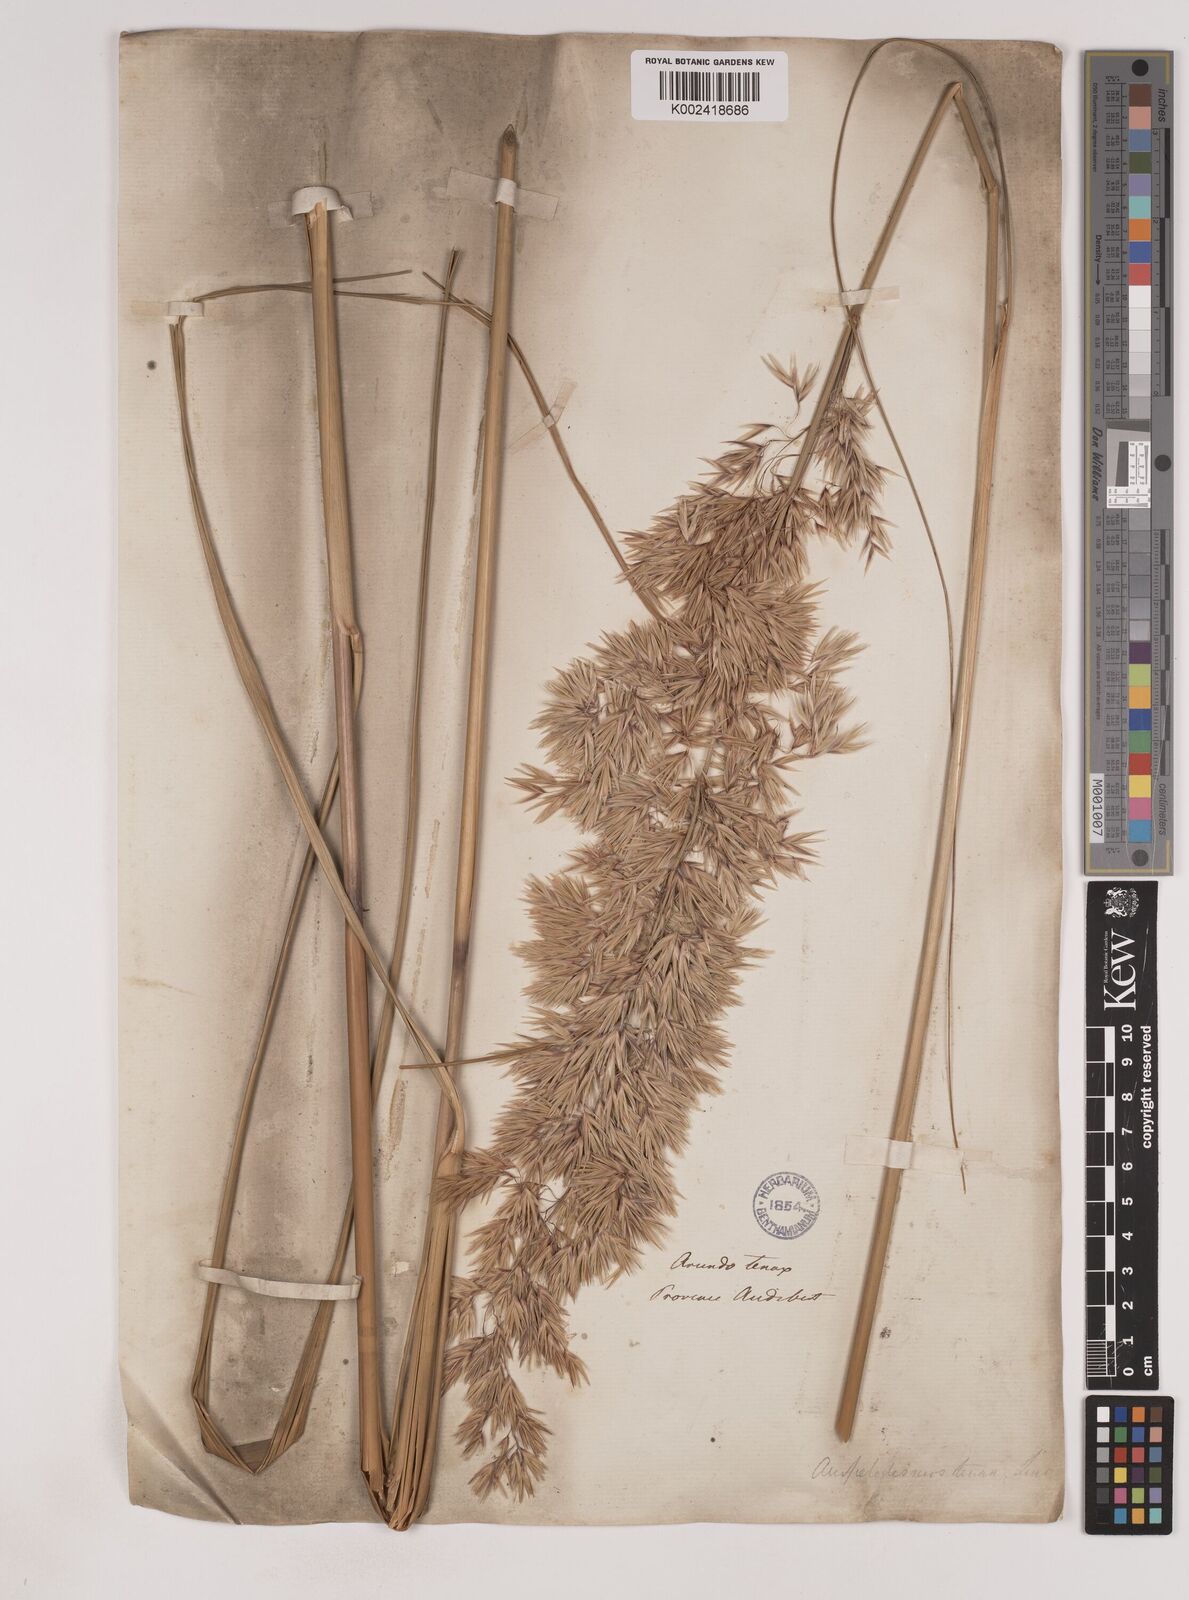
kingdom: Plantae
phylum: Tracheophyta
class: Liliopsida
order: Poales
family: Poaceae
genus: Ampelodesmos
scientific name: Ampelodesmos mauritanicus
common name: Mauritanian grass
